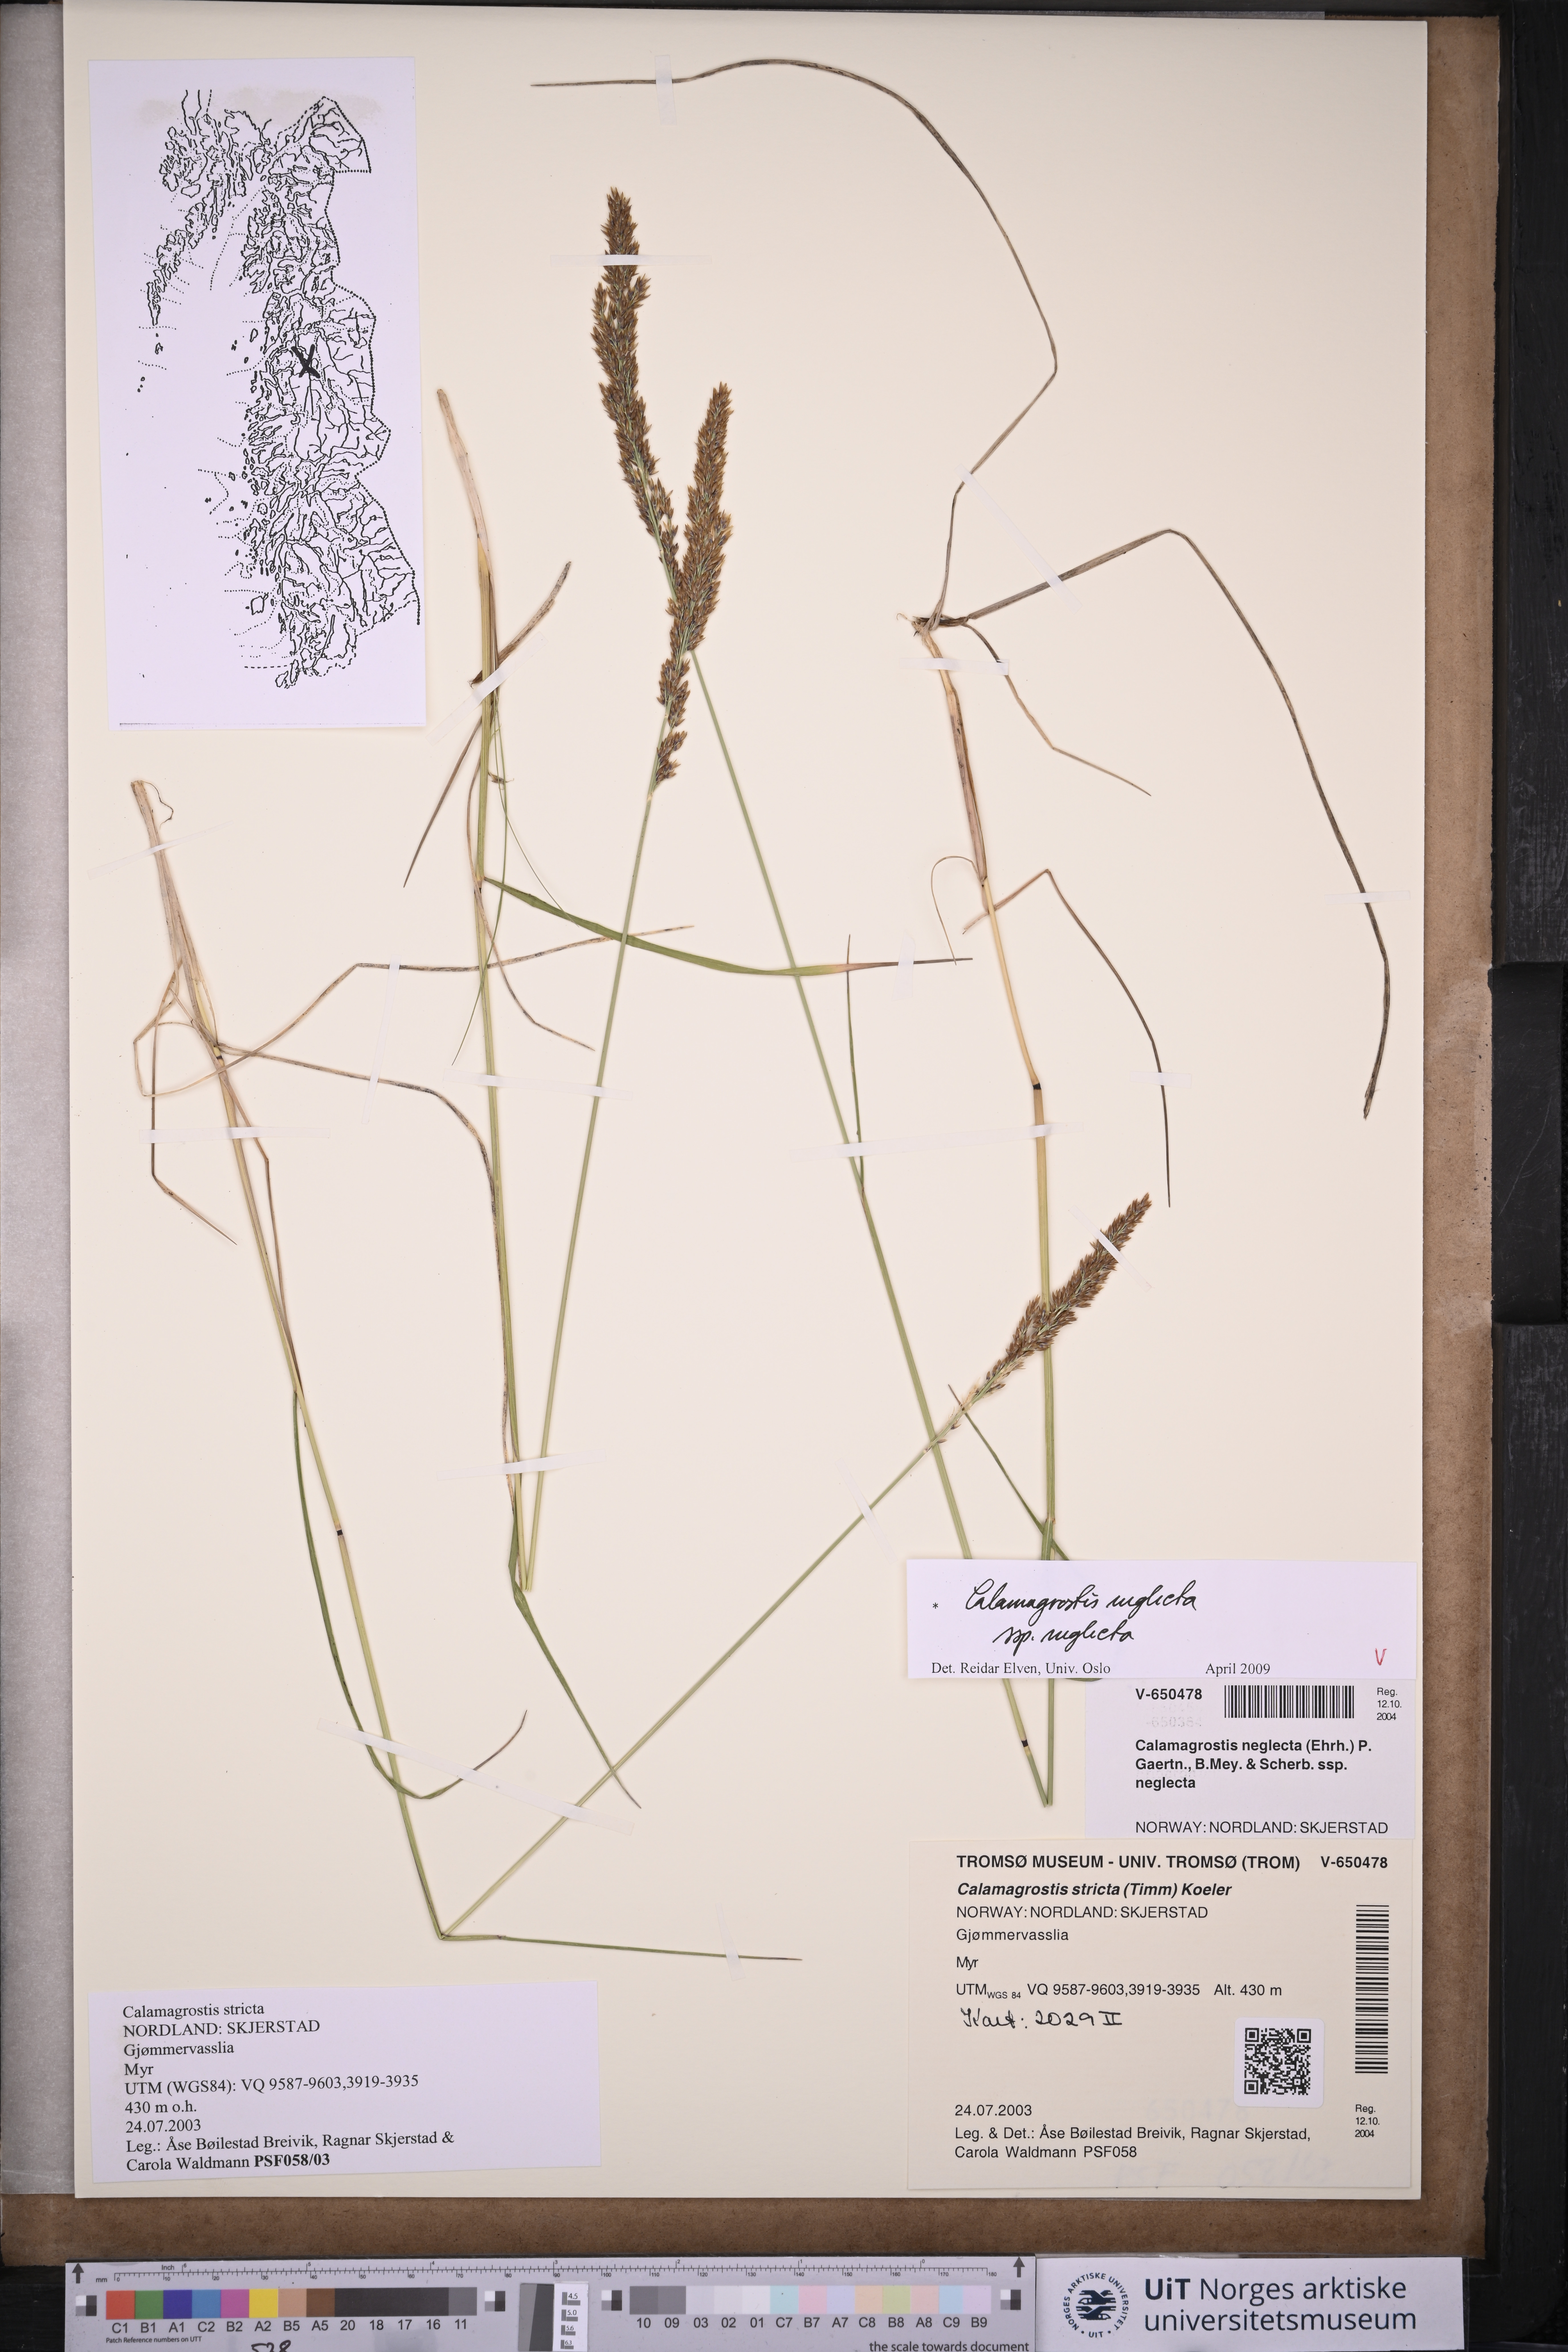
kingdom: Plantae
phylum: Tracheophyta
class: Liliopsida
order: Poales
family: Poaceae
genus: Achnatherum
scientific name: Achnatherum calamagrostis
